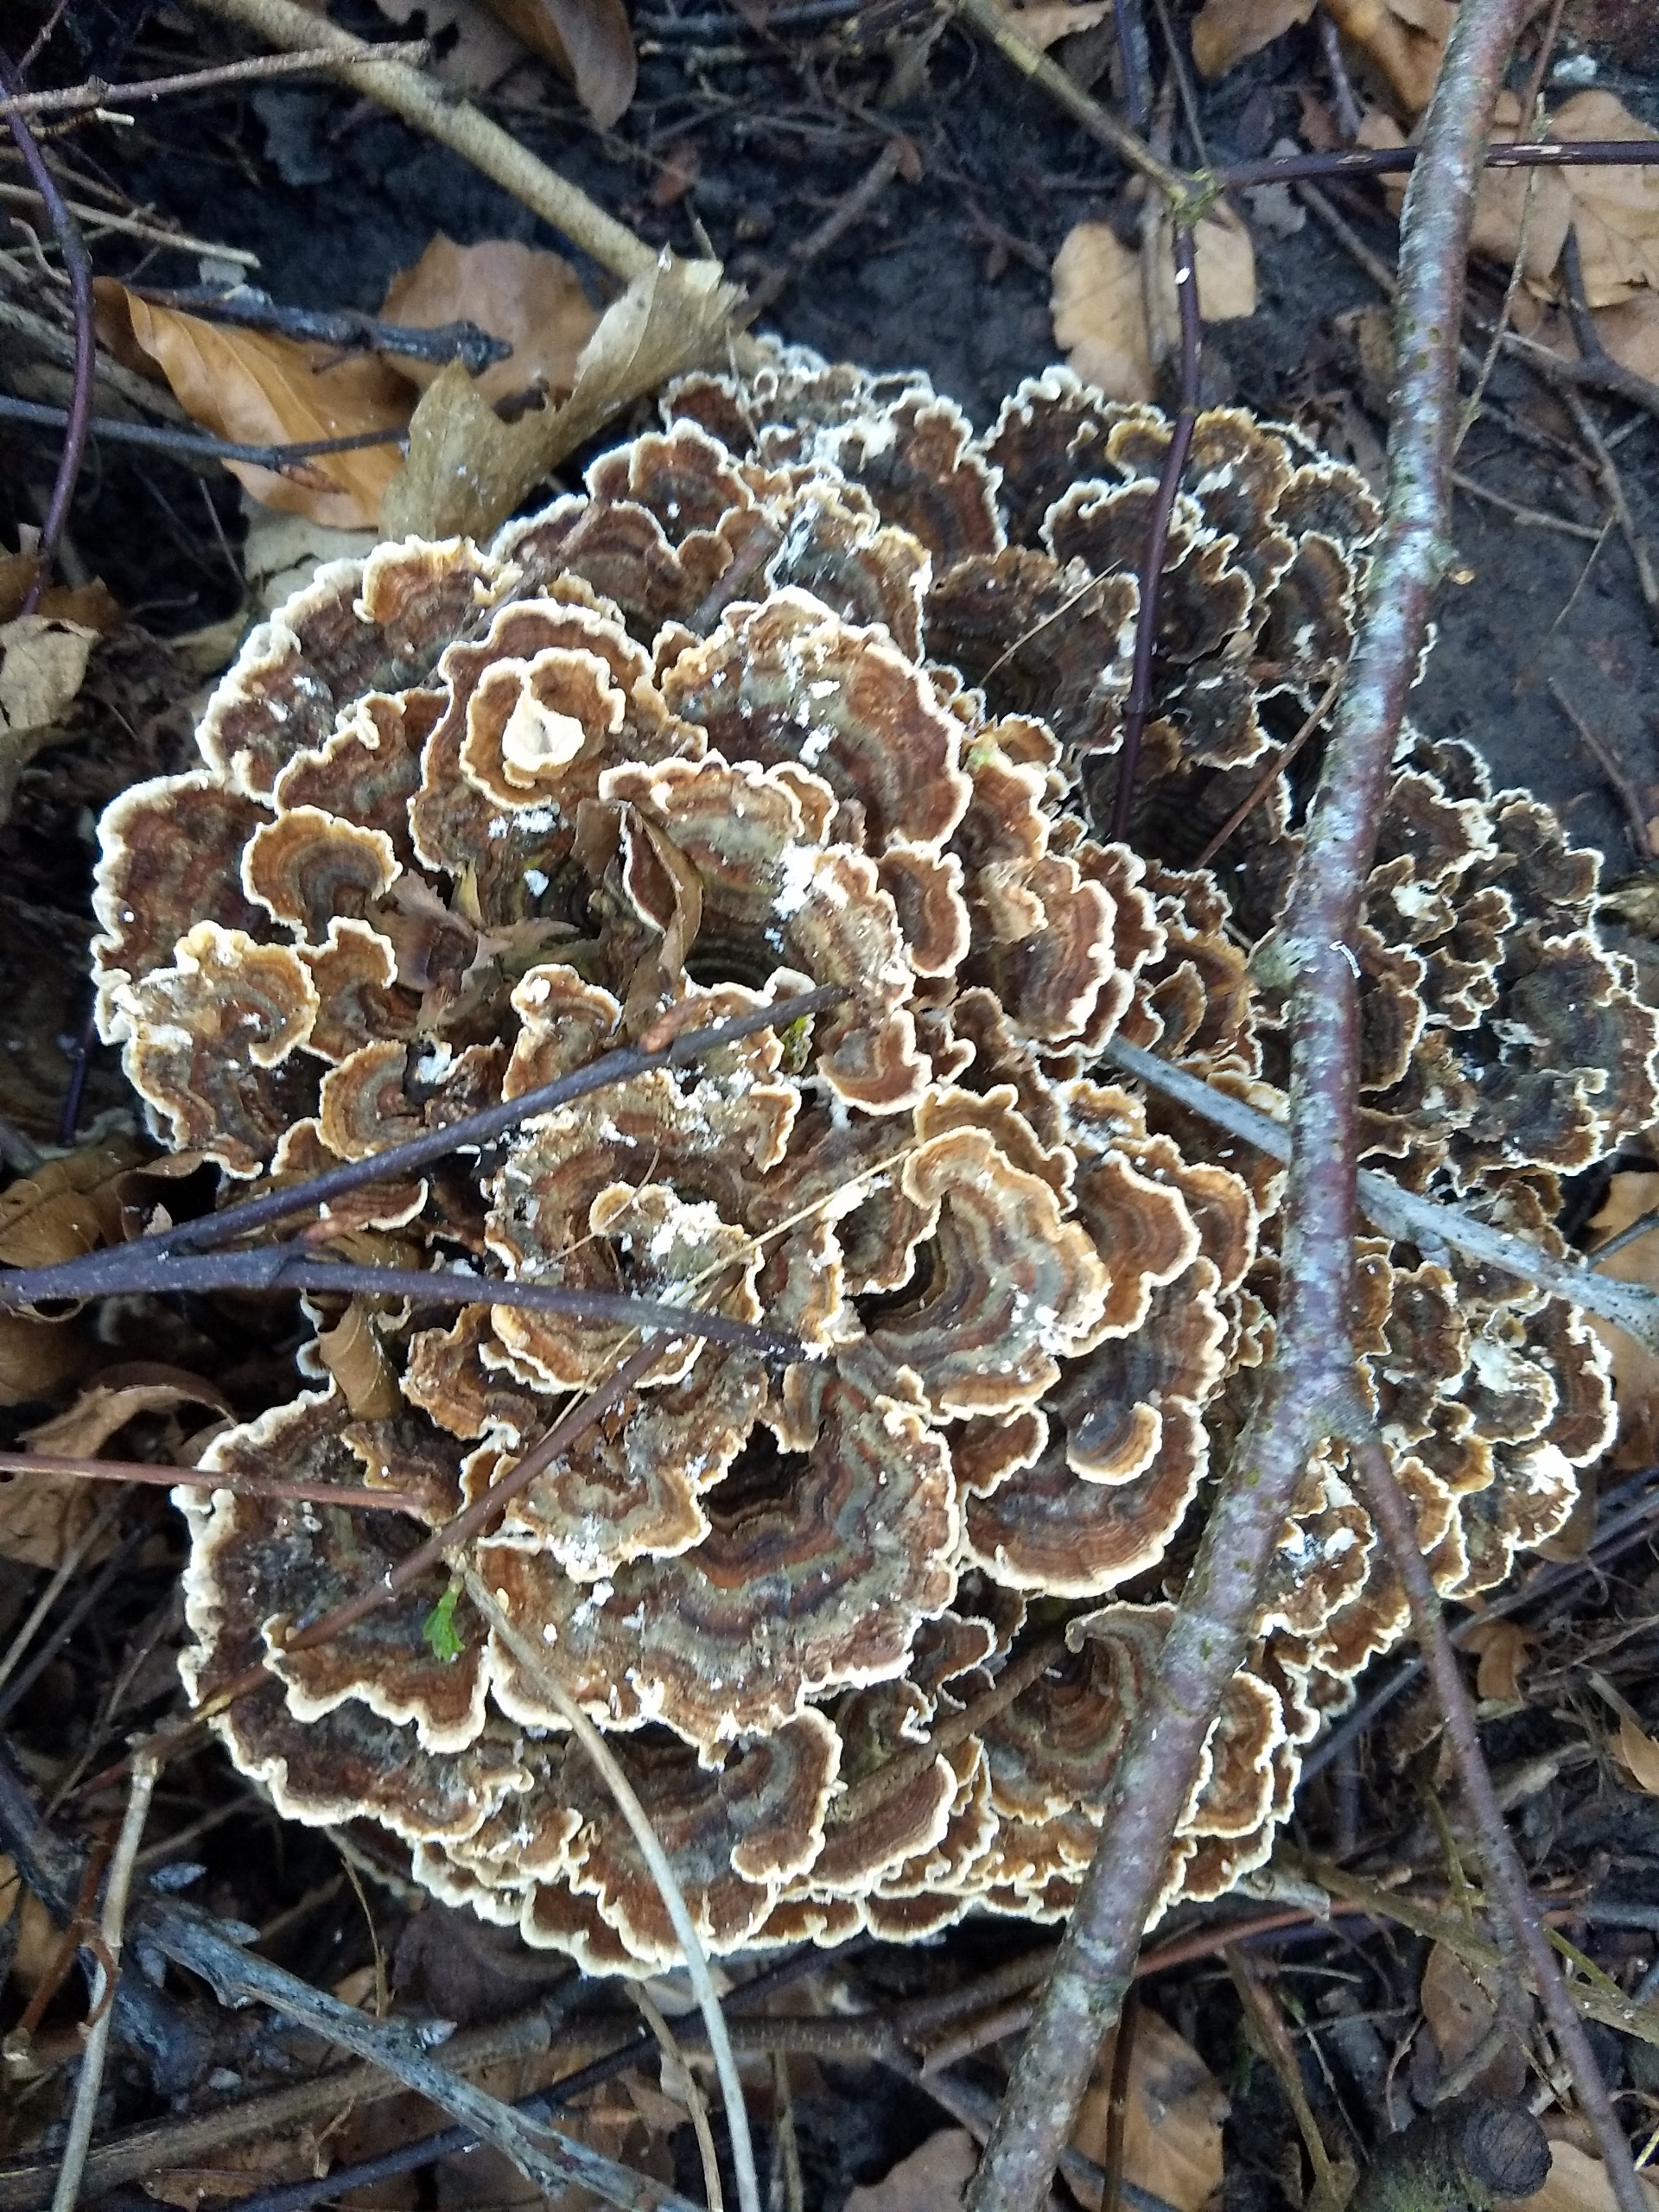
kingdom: Fungi
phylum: Basidiomycota
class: Agaricomycetes
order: Polyporales
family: Polyporaceae
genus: Trametes
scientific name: Trametes versicolor
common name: Broget læderporesvamp
